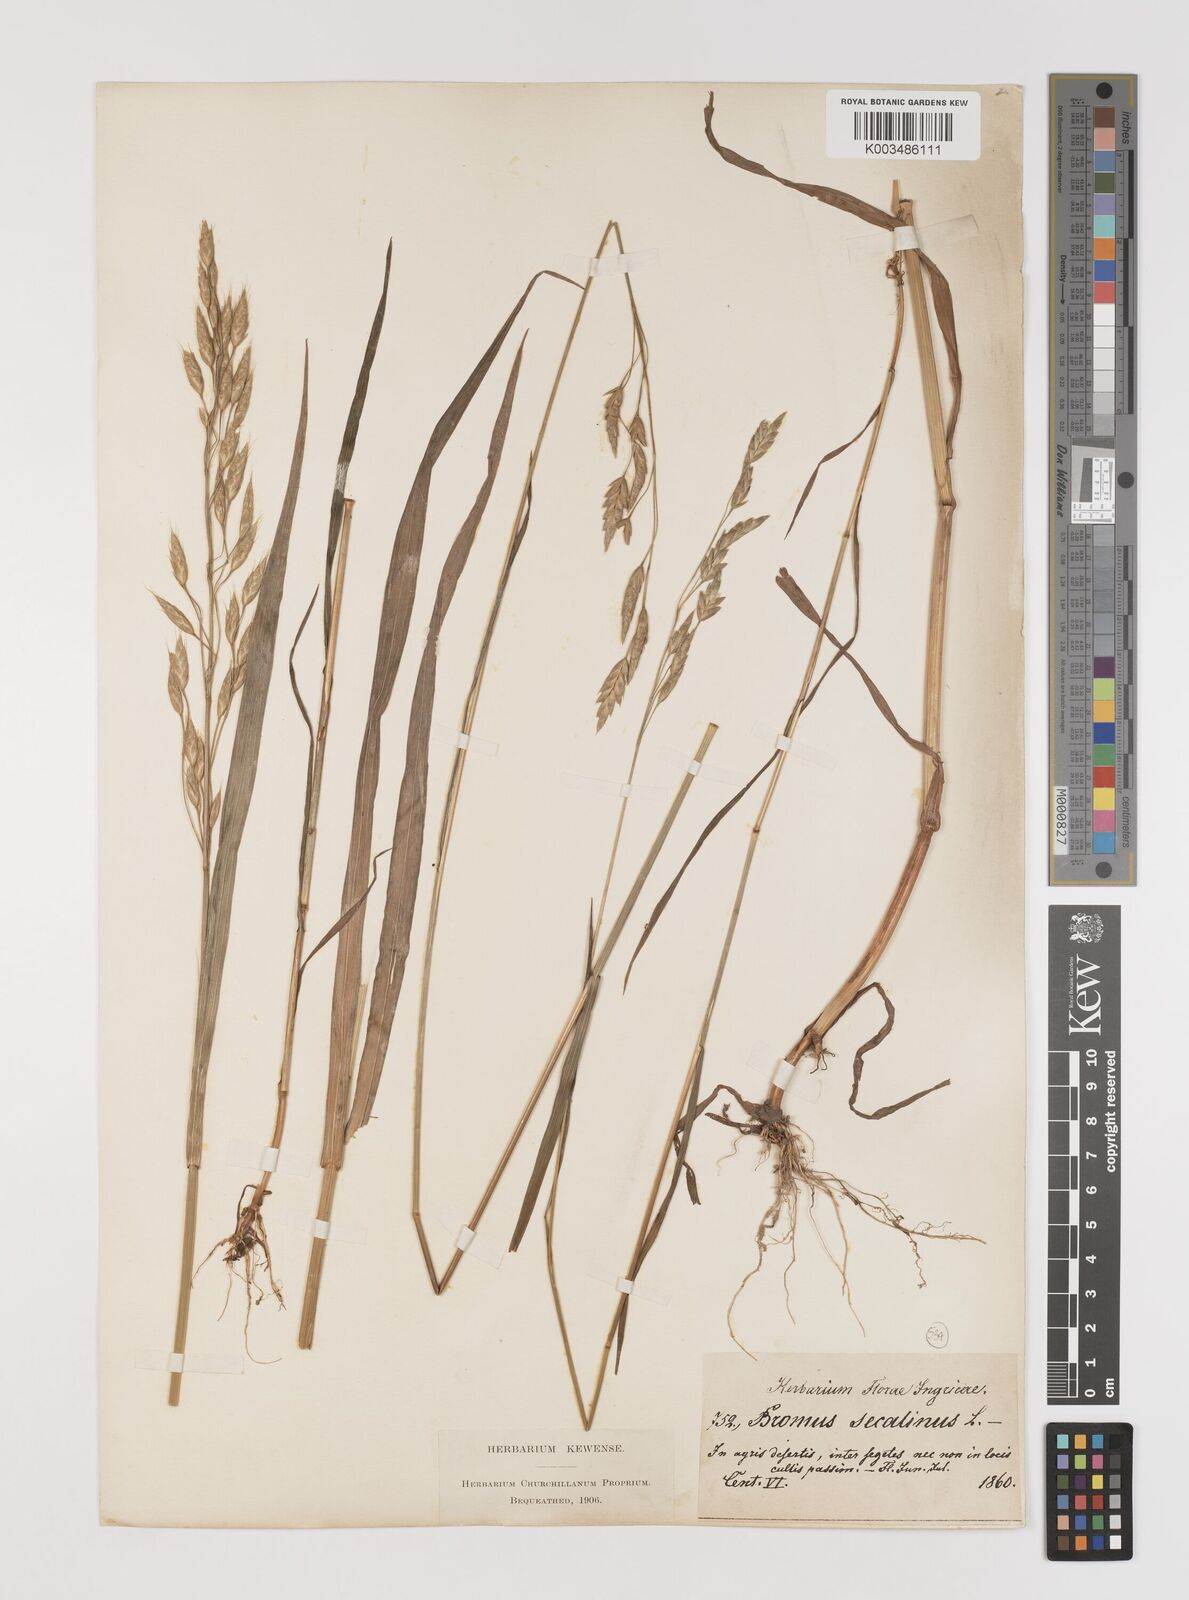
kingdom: Plantae
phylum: Tracheophyta
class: Liliopsida
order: Poales
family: Poaceae
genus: Bromus
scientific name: Bromus secalinus
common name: Rye brome
